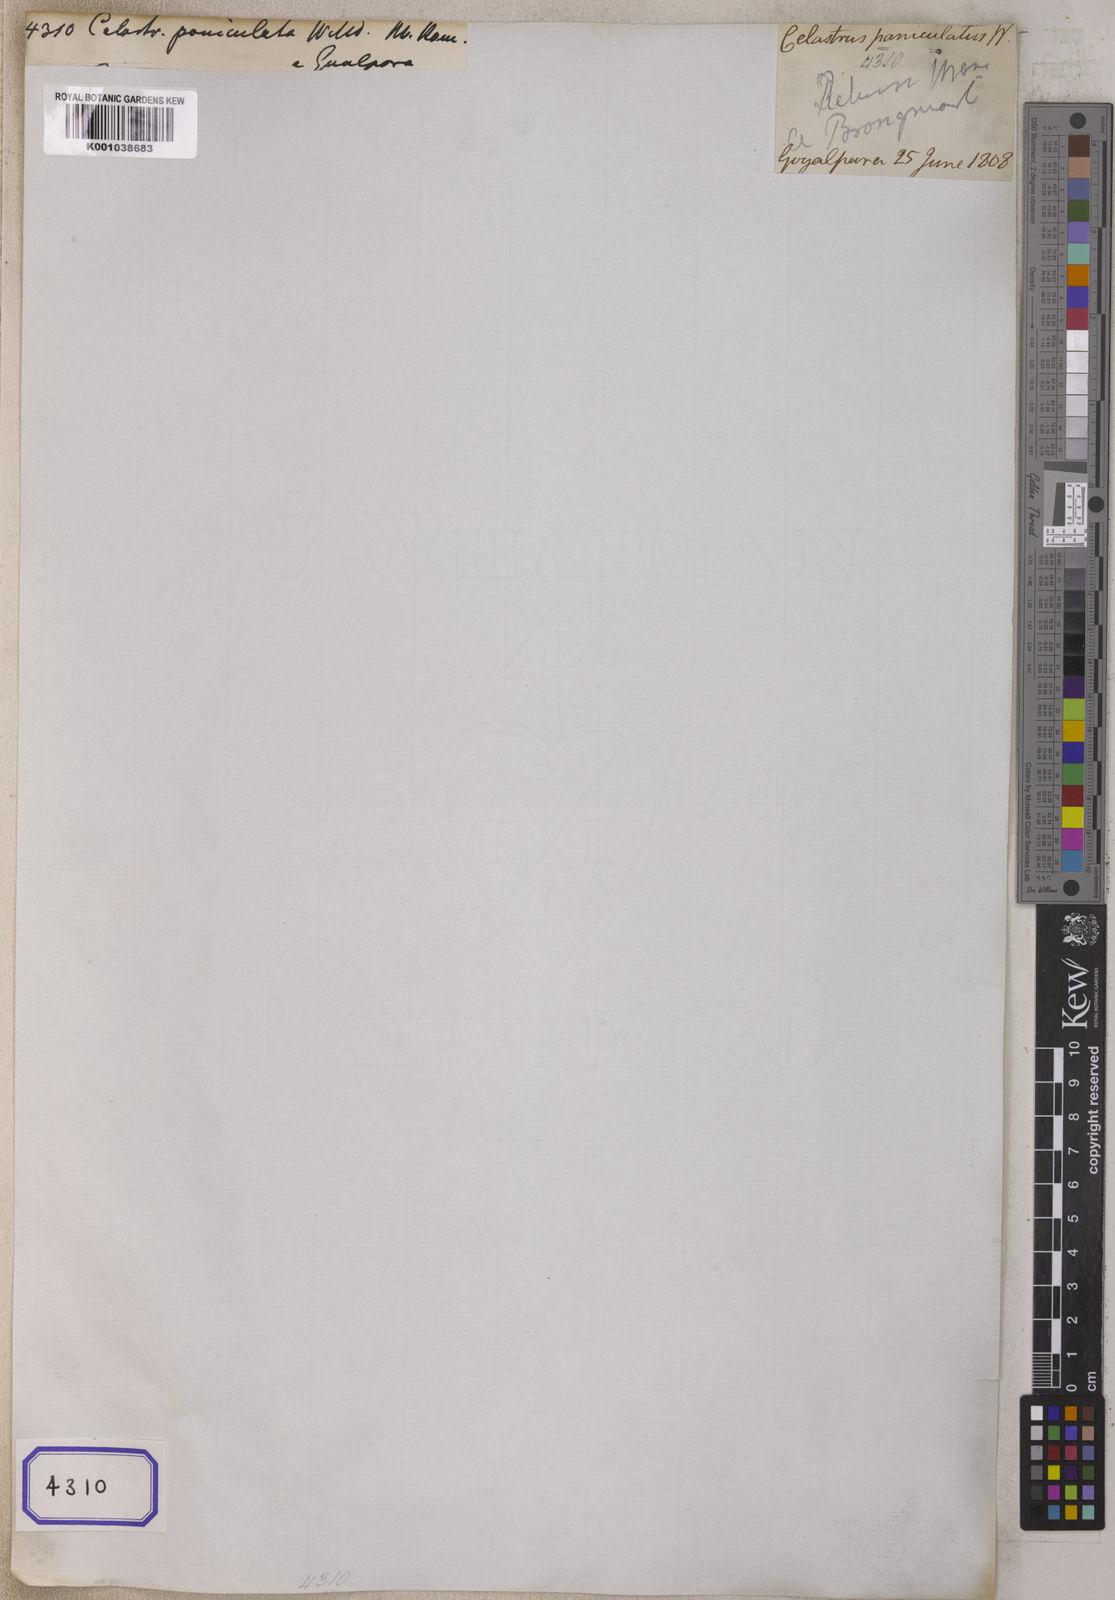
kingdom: Plantae
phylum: Tracheophyta
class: Magnoliopsida
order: Celastrales
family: Celastraceae
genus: Celastrus
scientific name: Celastrus paniculatus
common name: Oriental bittersweet; staff vine
